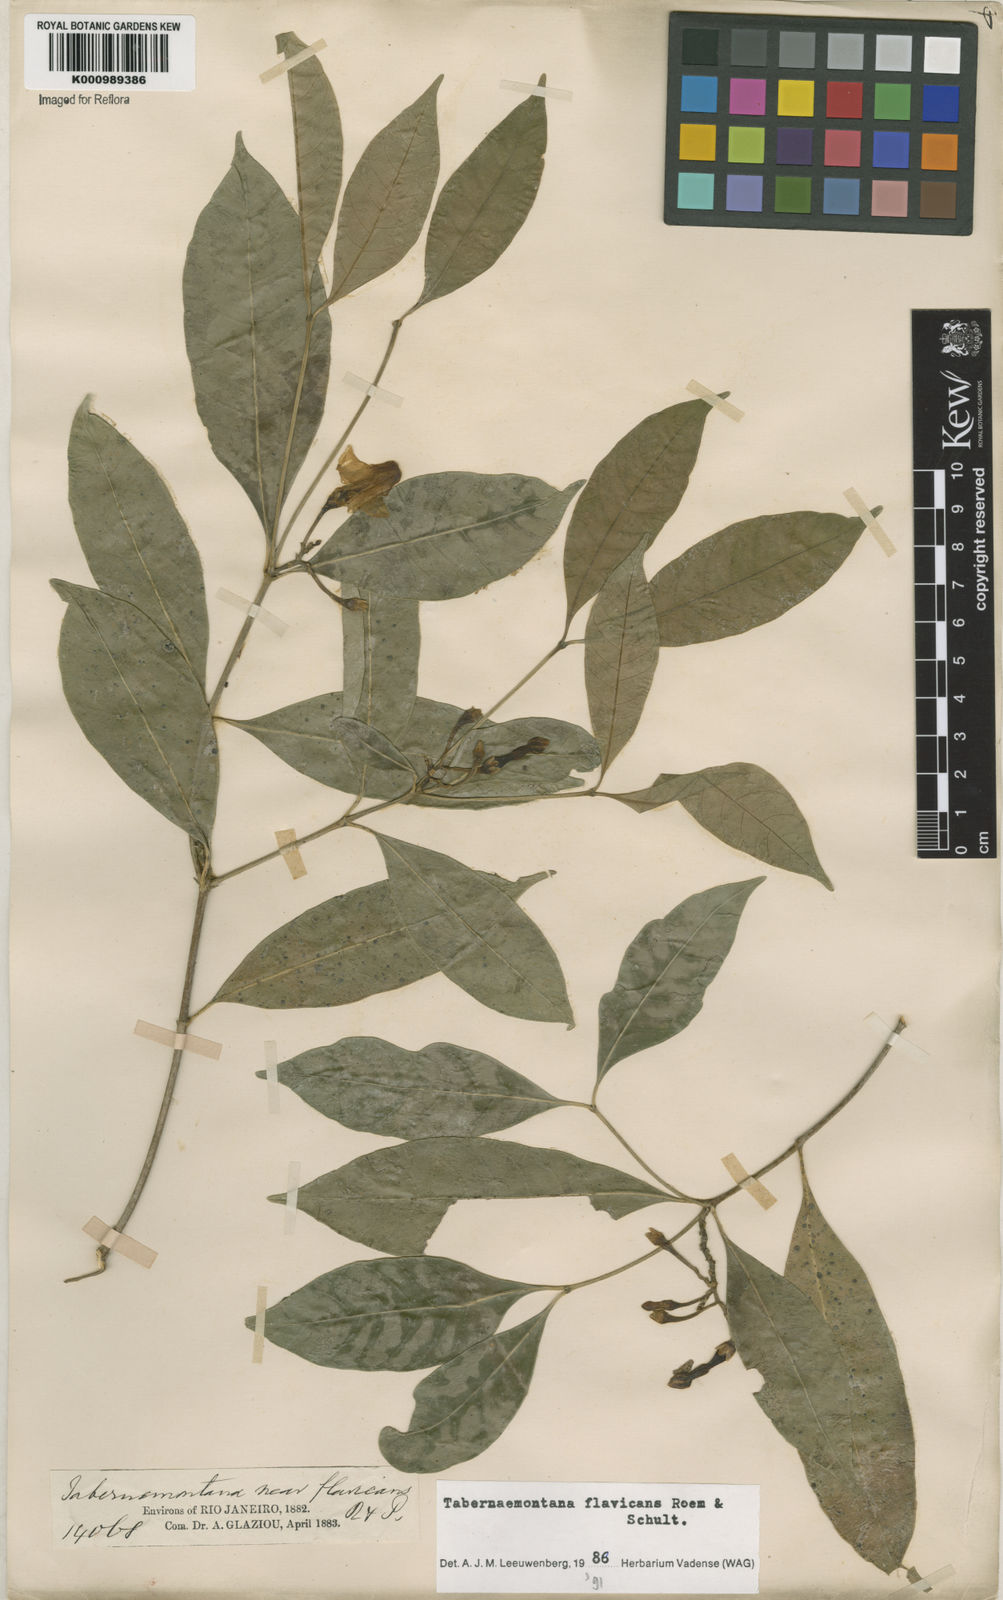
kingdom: Plantae
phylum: Tracheophyta
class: Magnoliopsida
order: Gentianales
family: Apocynaceae
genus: Tabernaemontana
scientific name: Tabernaemontana flavicans
